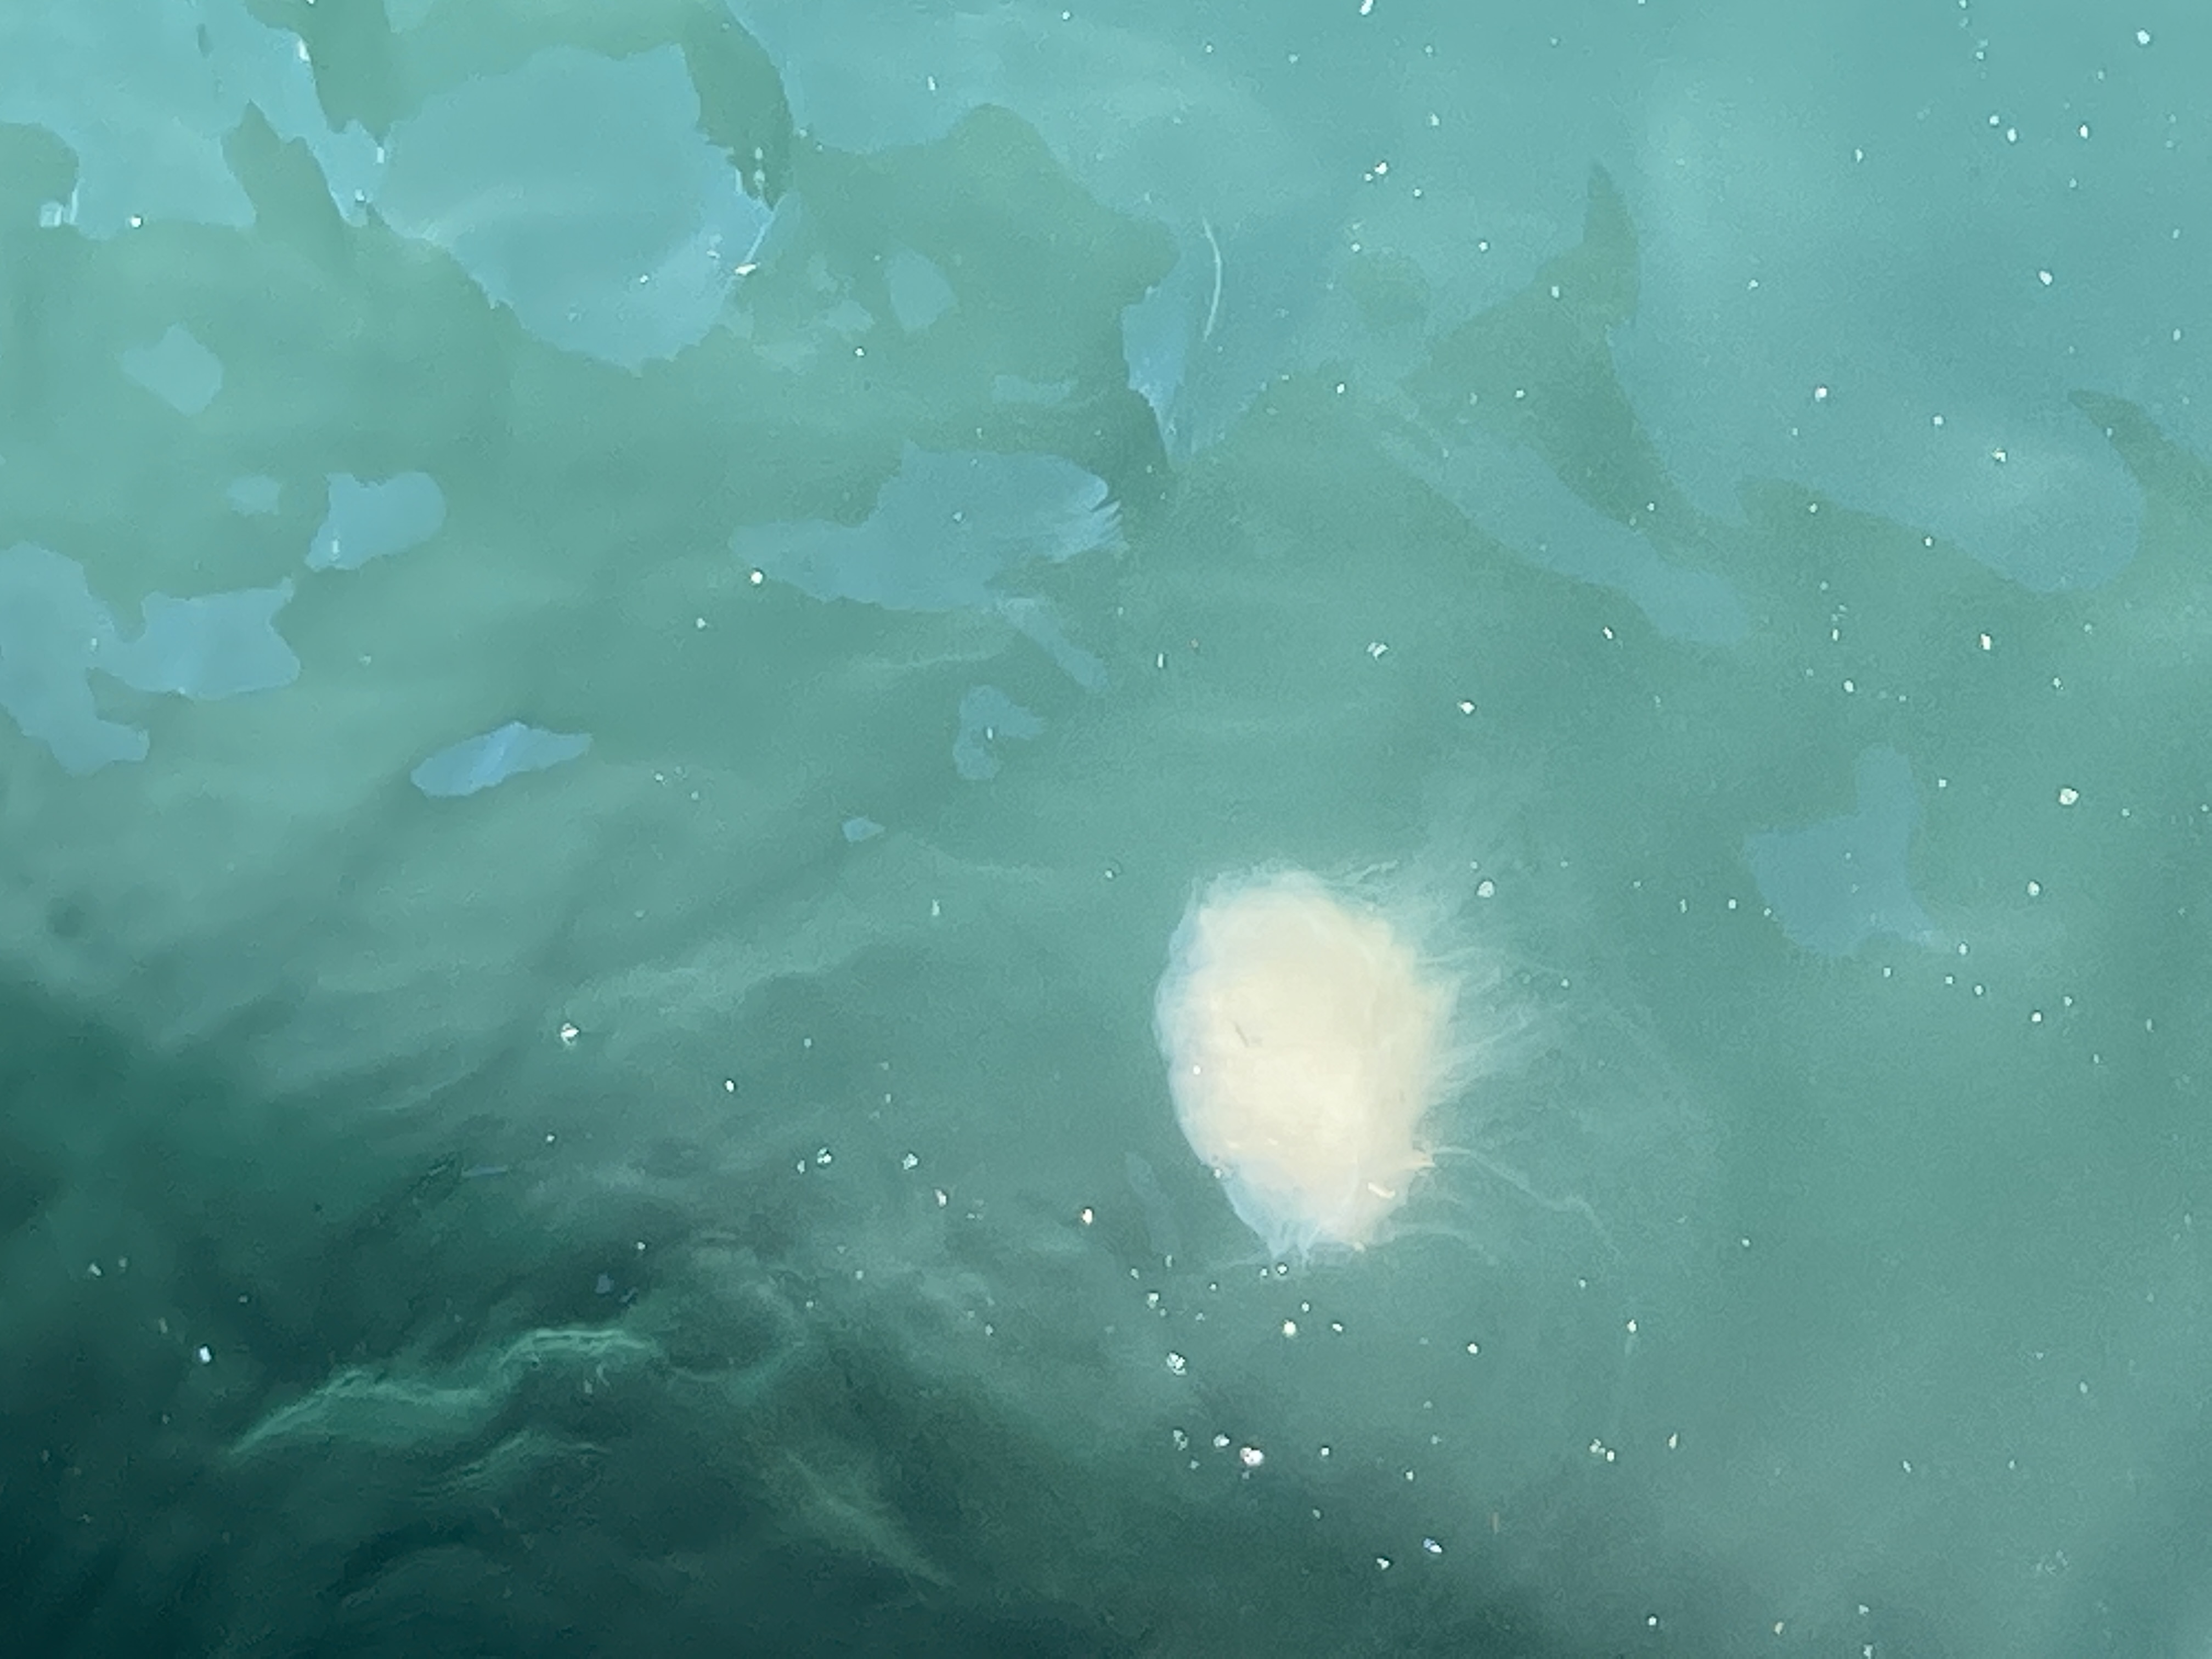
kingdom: Animalia
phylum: Cnidaria
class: Scyphozoa
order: Semaeostomeae
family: Cyaneidae
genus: Cyanea
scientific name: Cyanea nozakii
